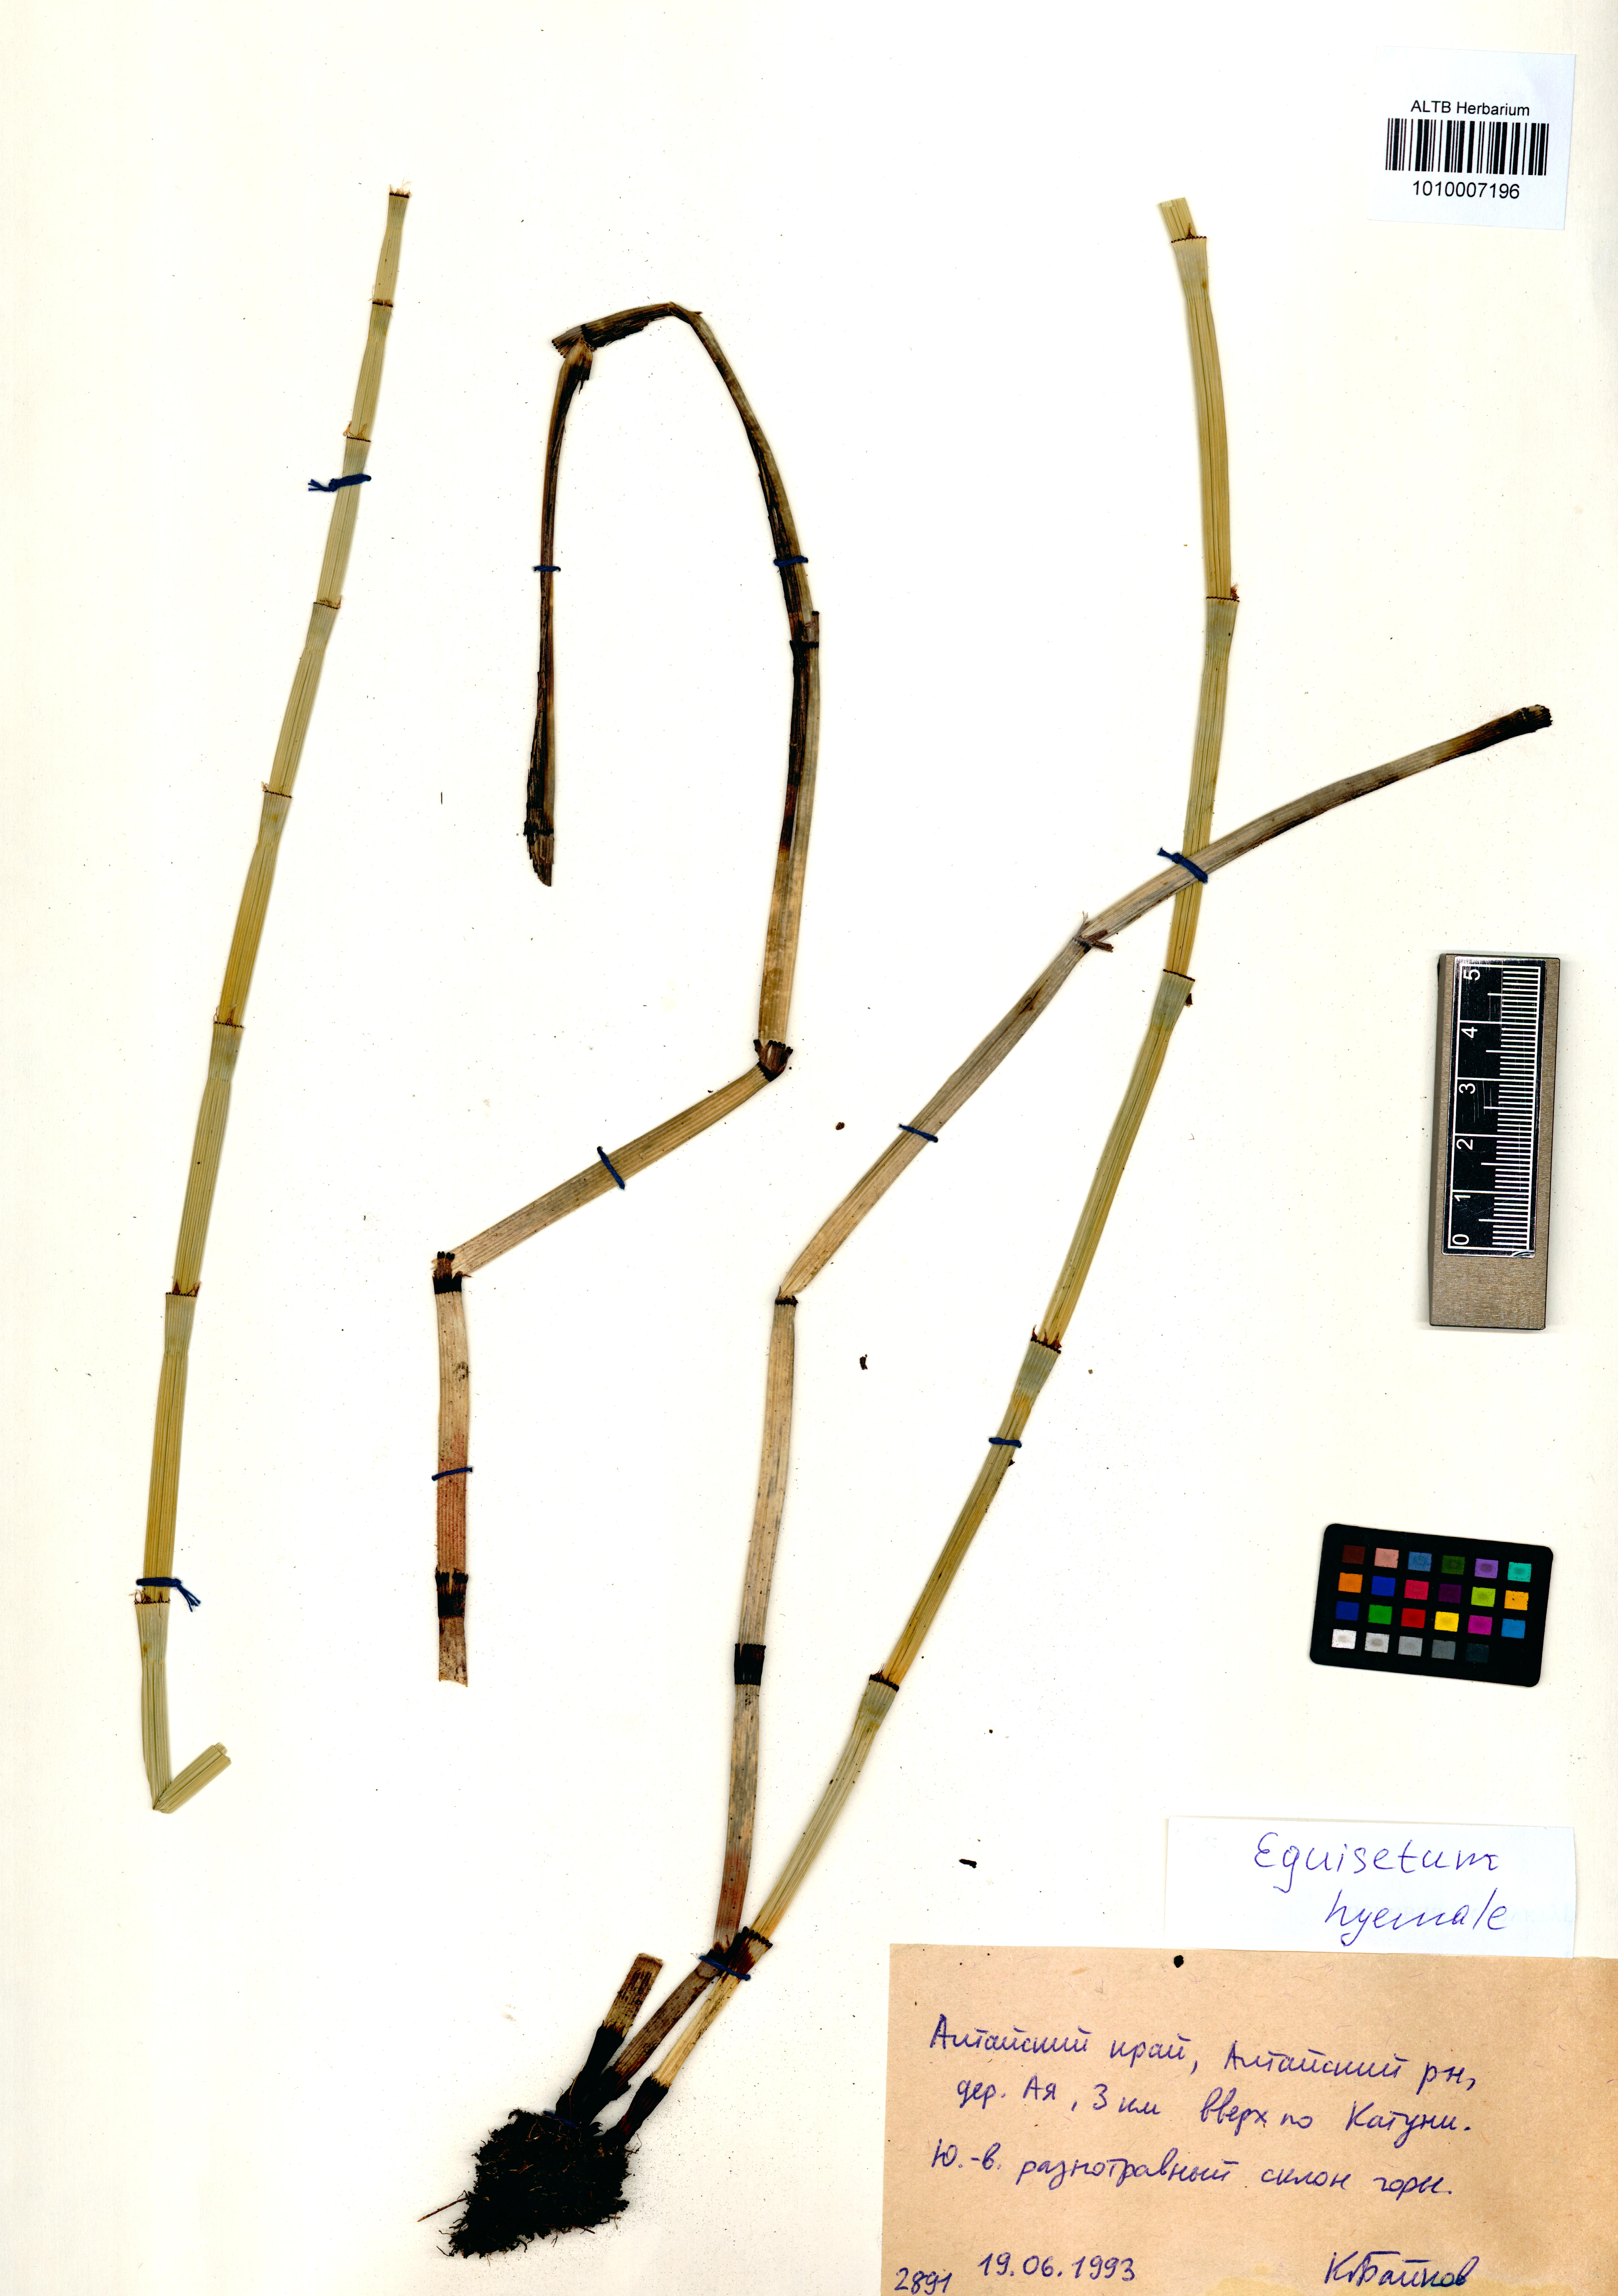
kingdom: Plantae
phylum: Tracheophyta
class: Polypodiopsida
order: Equisetales
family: Equisetaceae
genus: Equisetum
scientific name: Equisetum hyemale
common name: Rough horsetail
